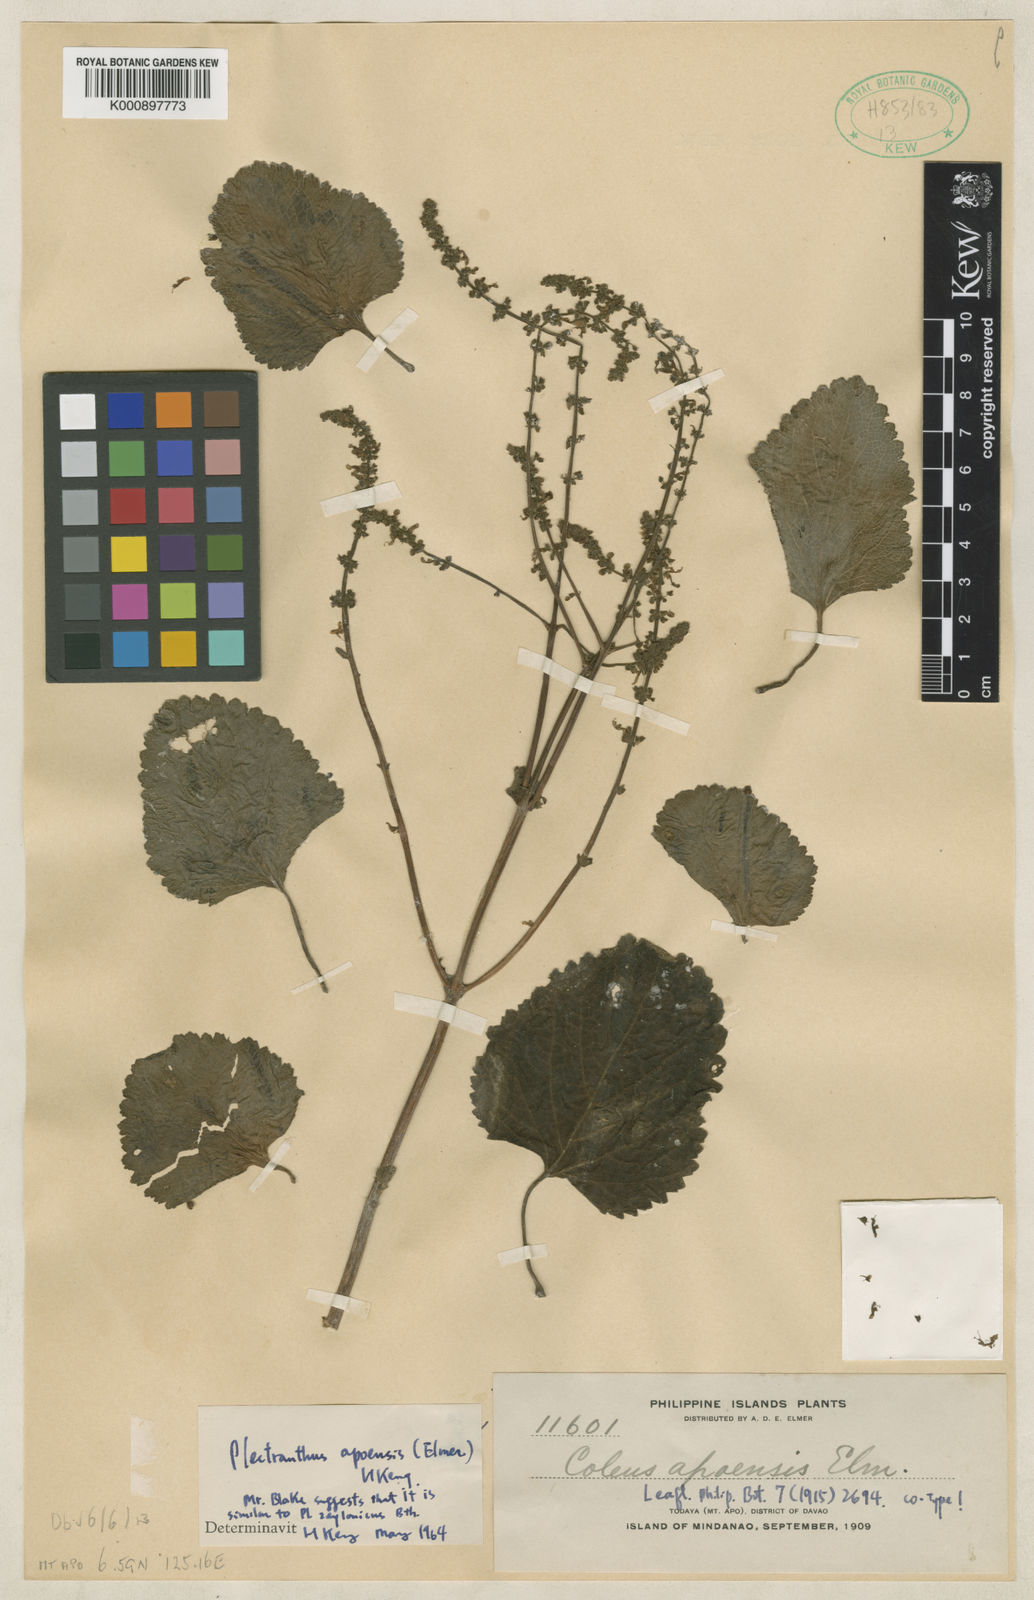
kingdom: Plantae
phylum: Tracheophyta
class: Magnoliopsida
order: Lamiales
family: Lamiaceae
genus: Coleus
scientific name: Coleus apoensis
